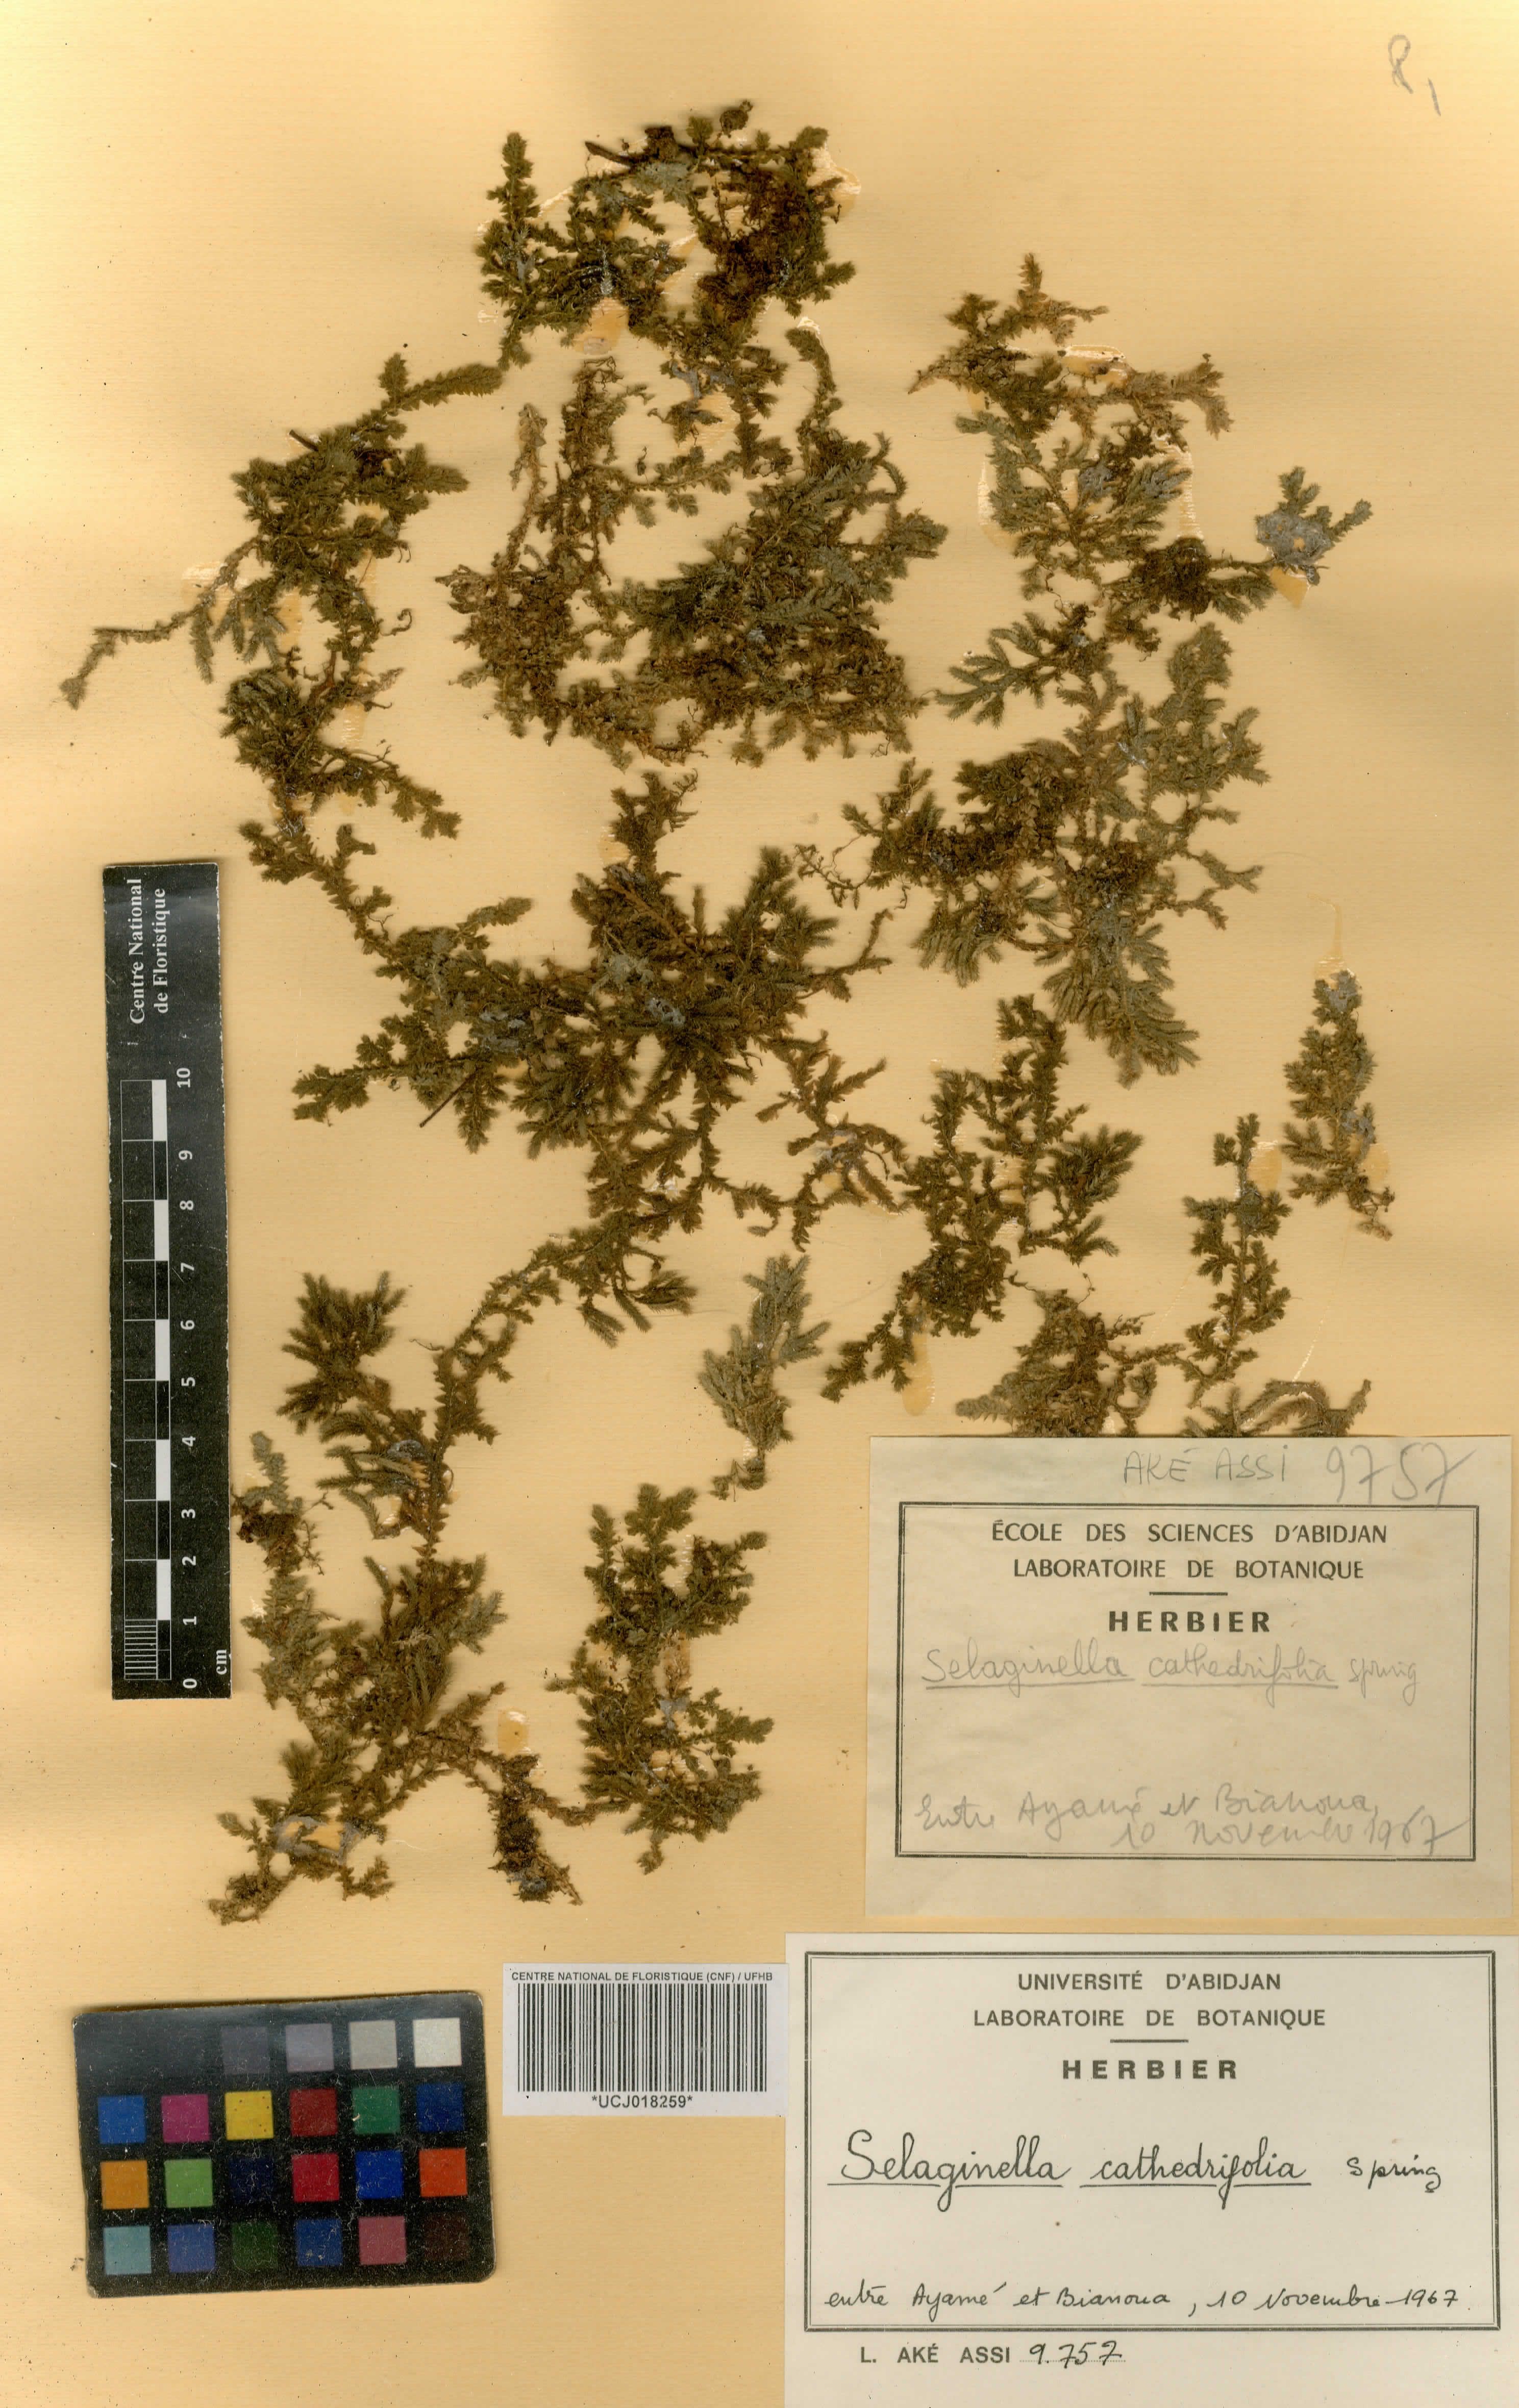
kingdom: Plantae
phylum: Tracheophyta
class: Lycopodiopsida
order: Selaginellales
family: Selaginellaceae
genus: Selaginella
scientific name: Selaginella cathedrifolia
